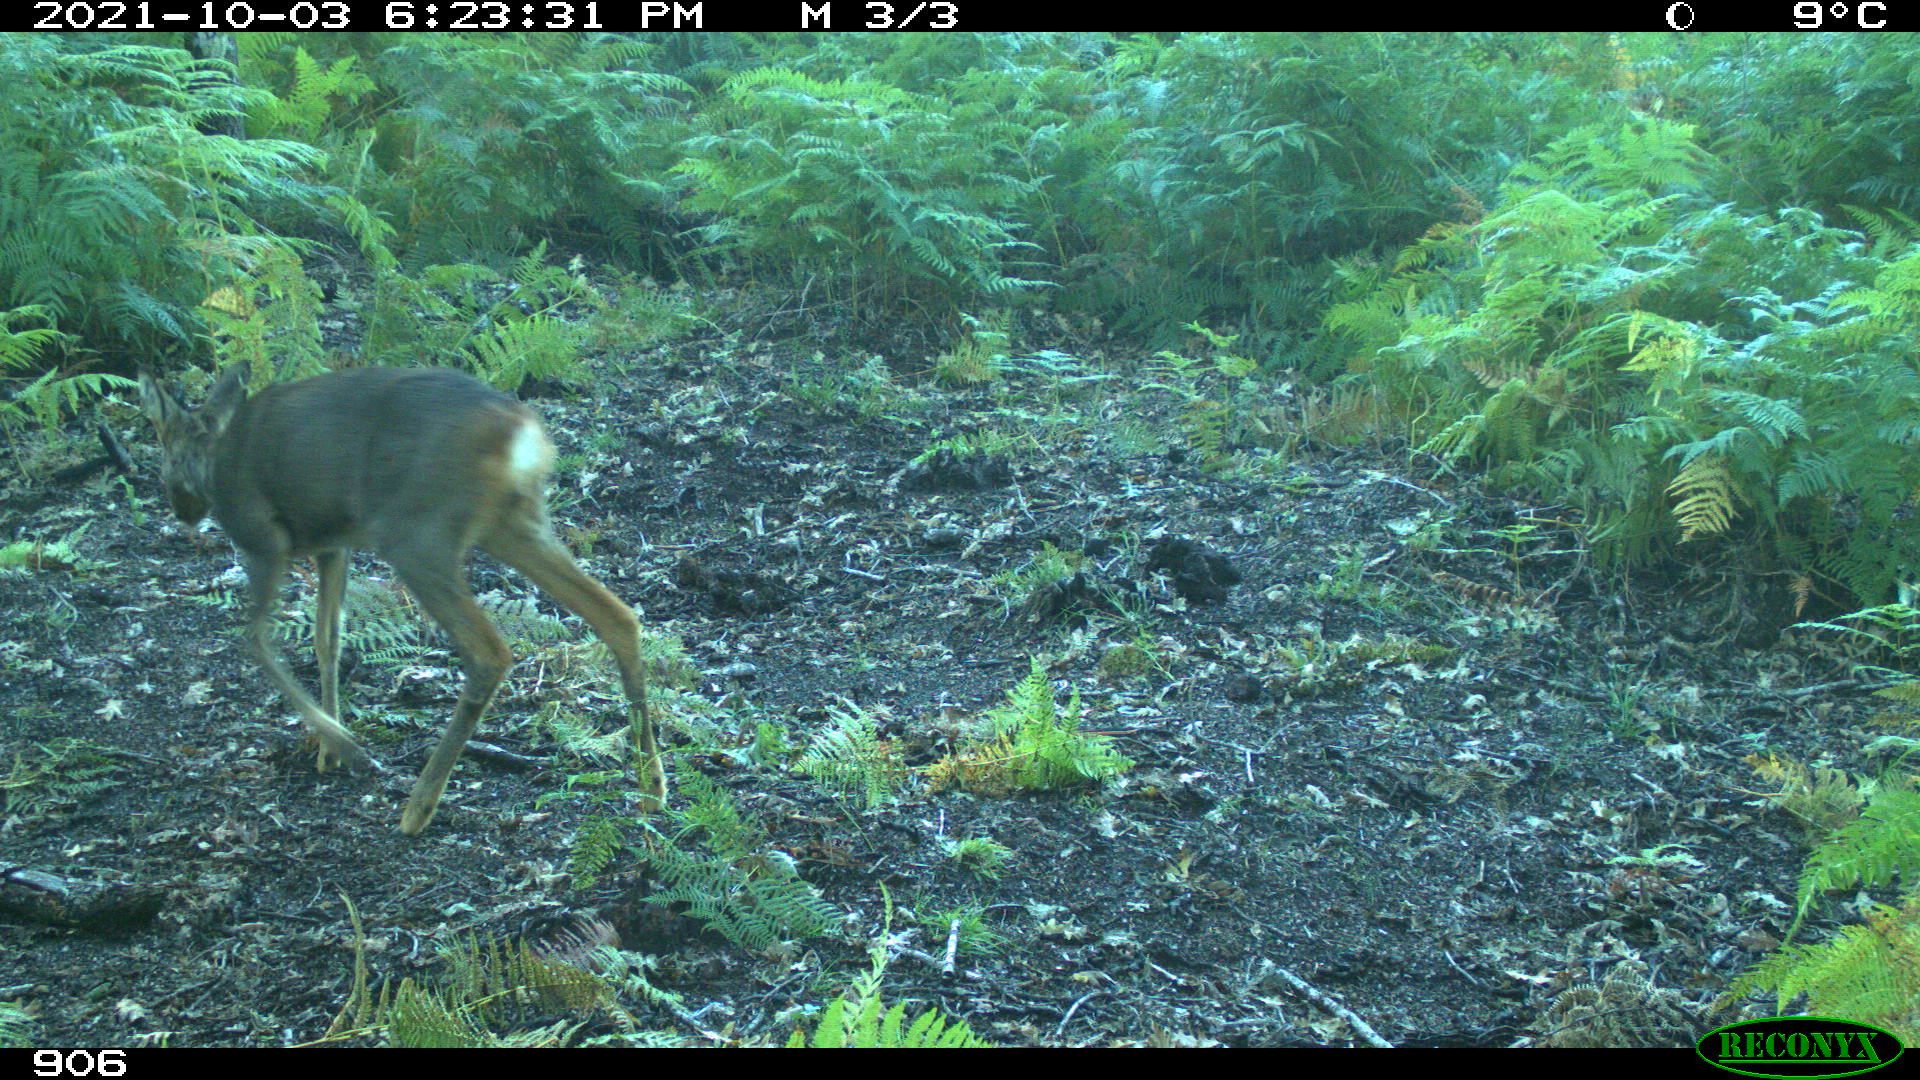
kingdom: Animalia
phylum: Chordata
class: Mammalia
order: Artiodactyla
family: Cervidae
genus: Capreolus
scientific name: Capreolus capreolus
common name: Western roe deer
